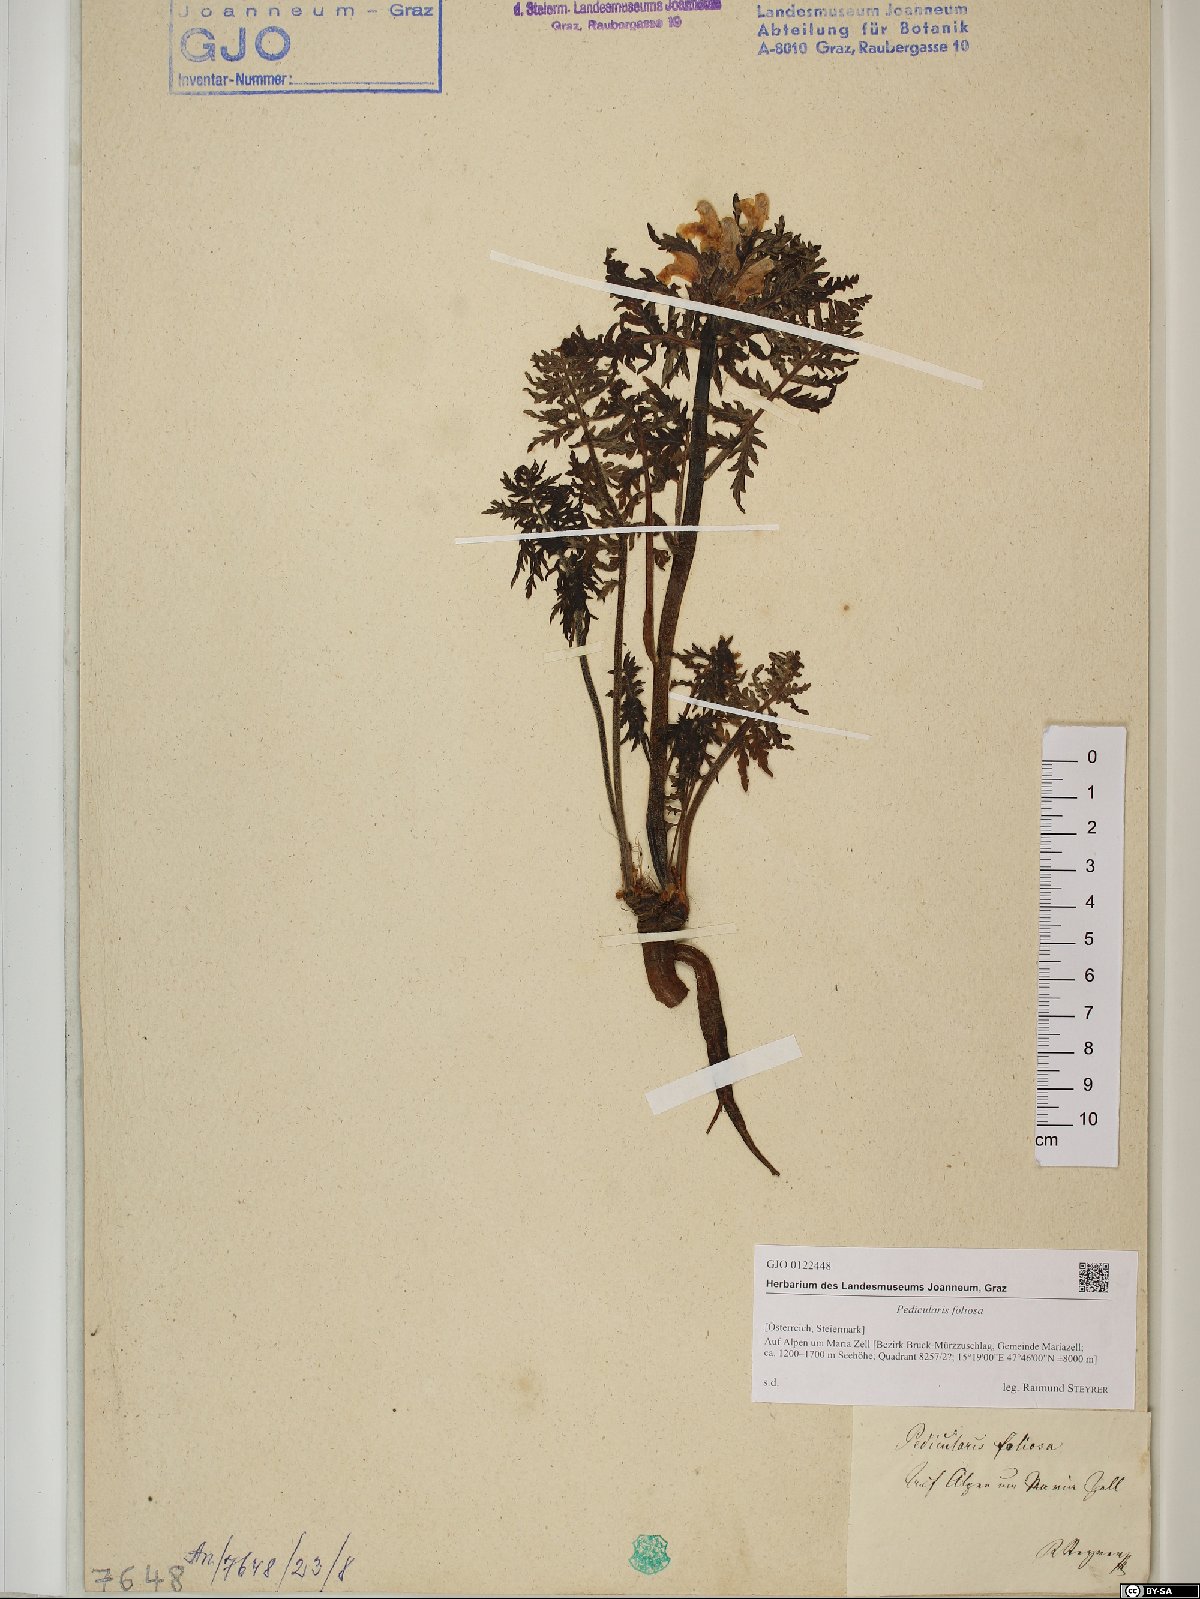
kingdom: Plantae
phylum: Tracheophyta
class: Magnoliopsida
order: Lamiales
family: Orobanchaceae
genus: Pedicularis
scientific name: Pedicularis foliosa
